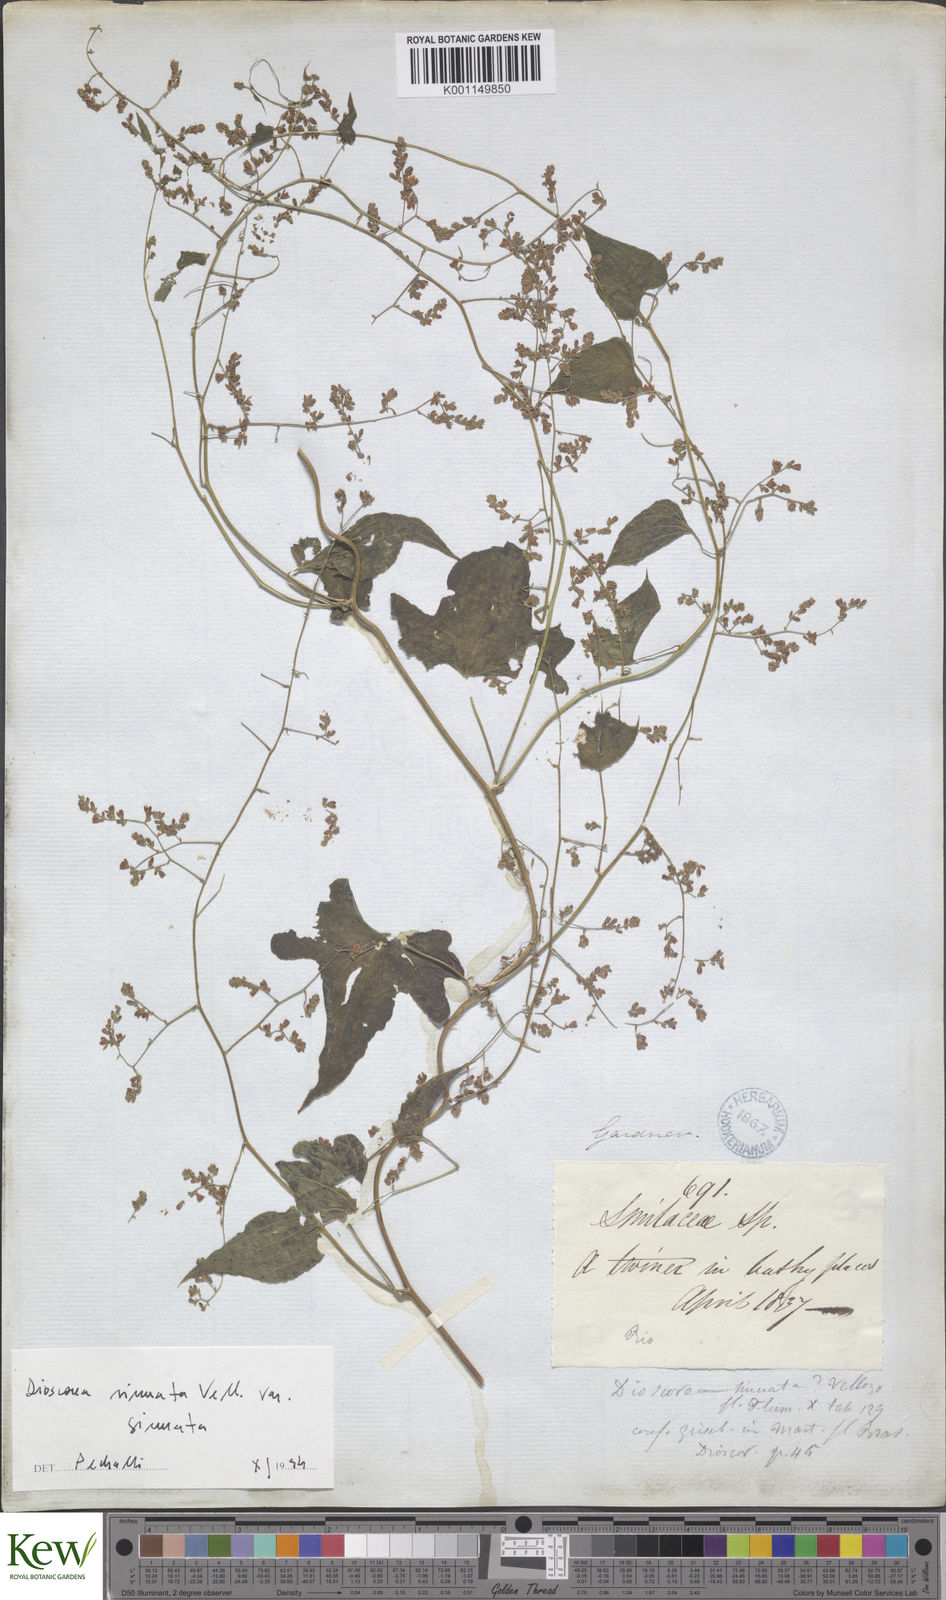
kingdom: Plantae
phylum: Tracheophyta
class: Liliopsida
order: Dioscoreales
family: Dioscoreaceae
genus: Dioscorea
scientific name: Dioscorea sinuata
